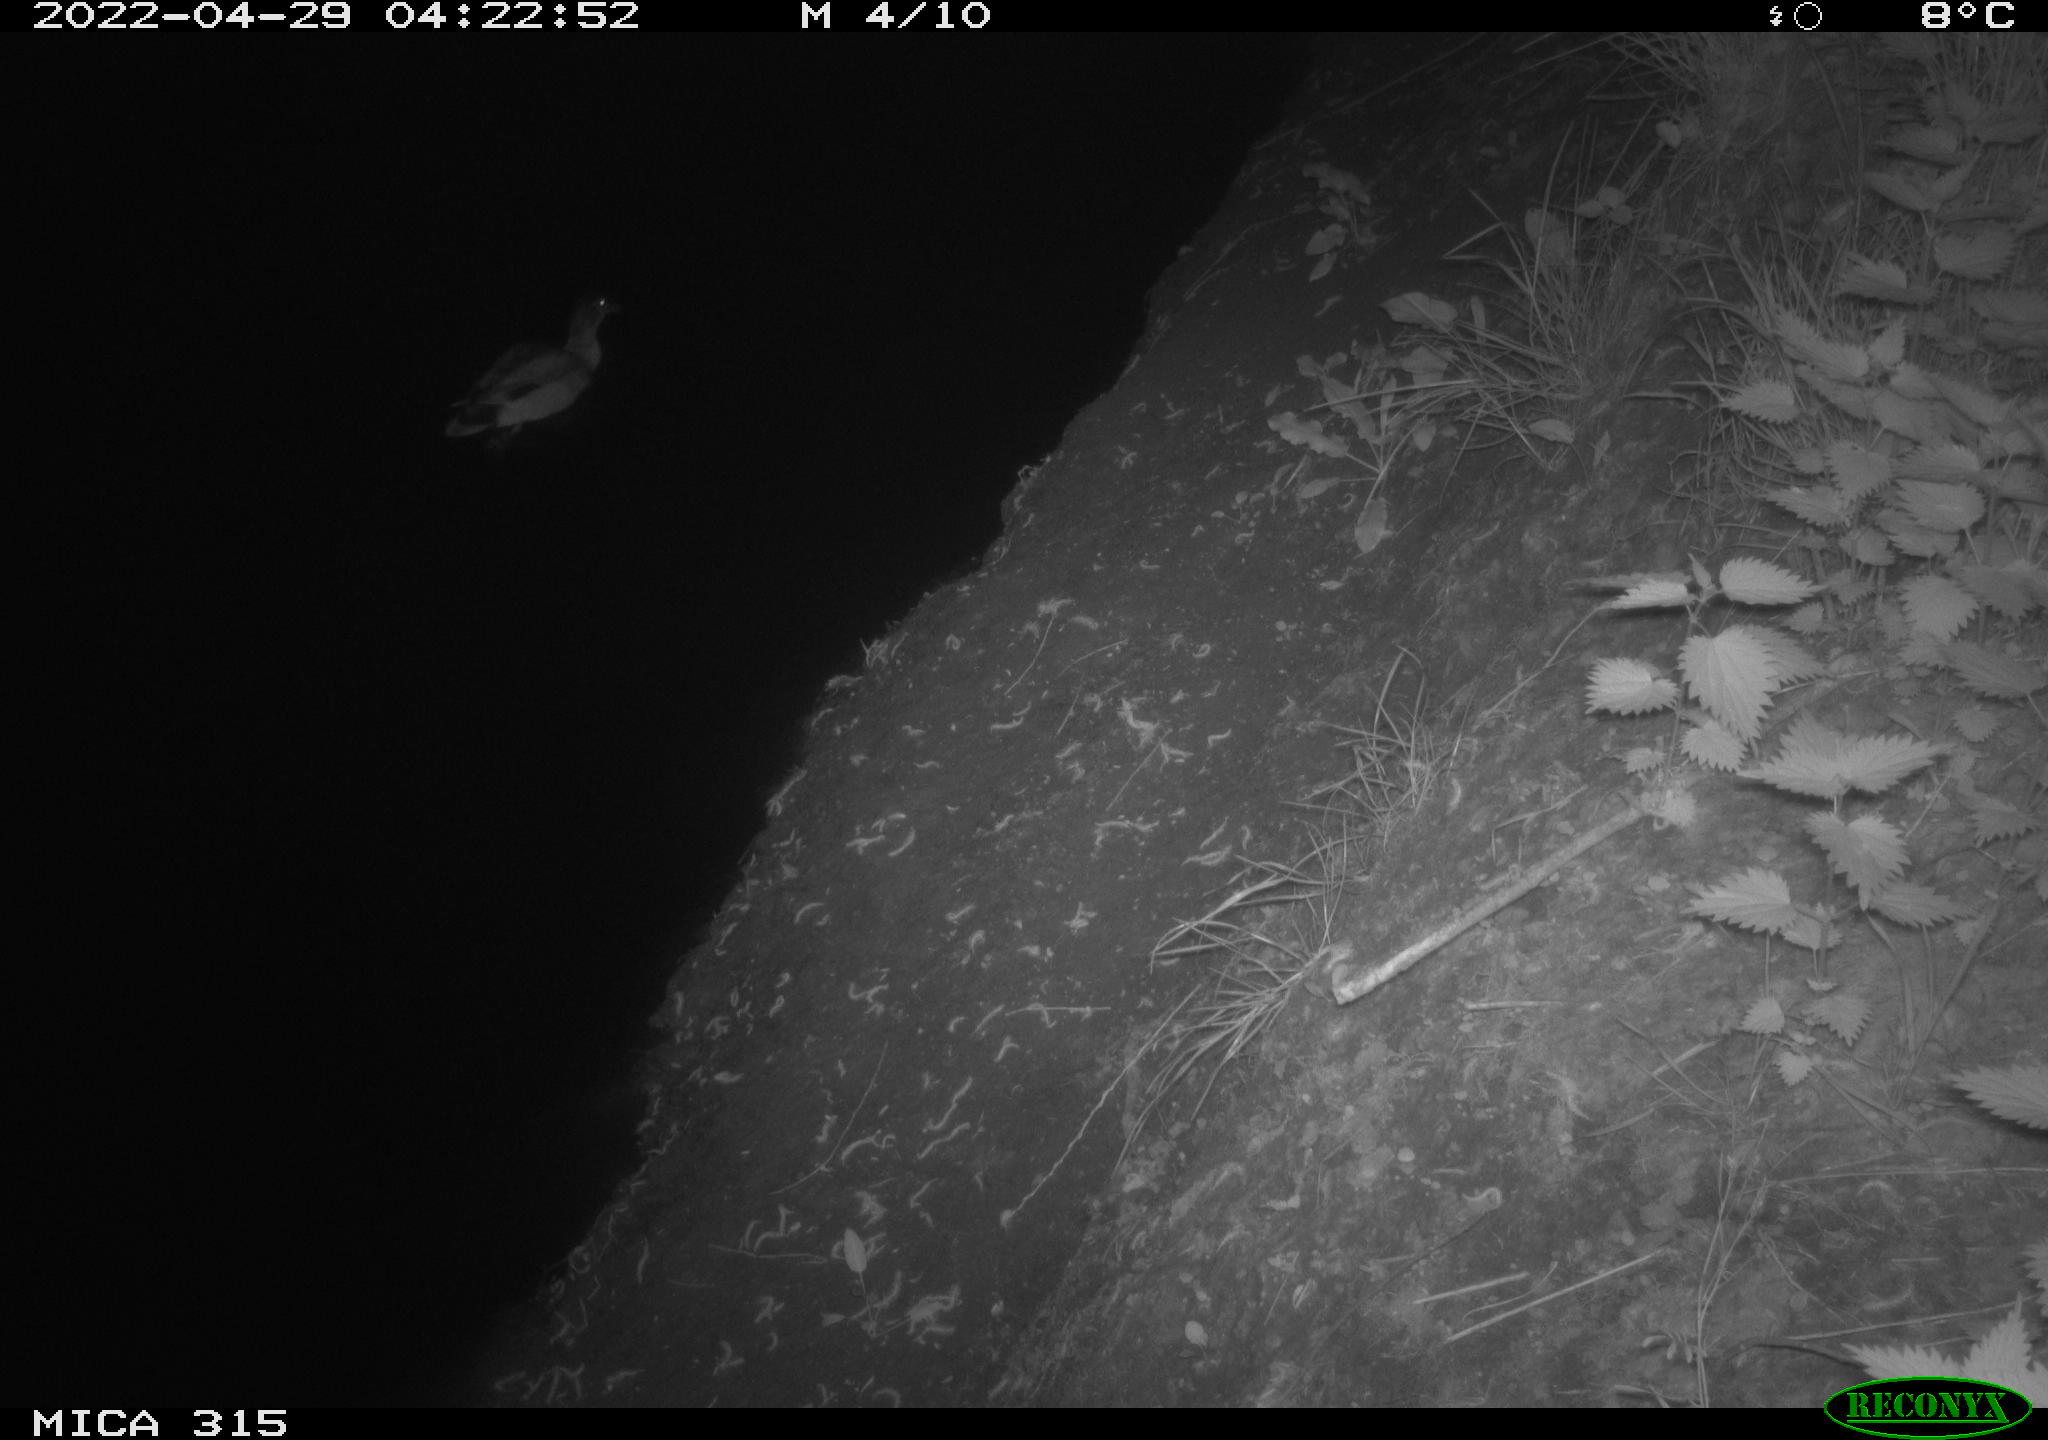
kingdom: Animalia
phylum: Chordata
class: Aves
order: Anseriformes
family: Anatidae
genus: Anas
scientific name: Anas platyrhynchos
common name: Mallard
